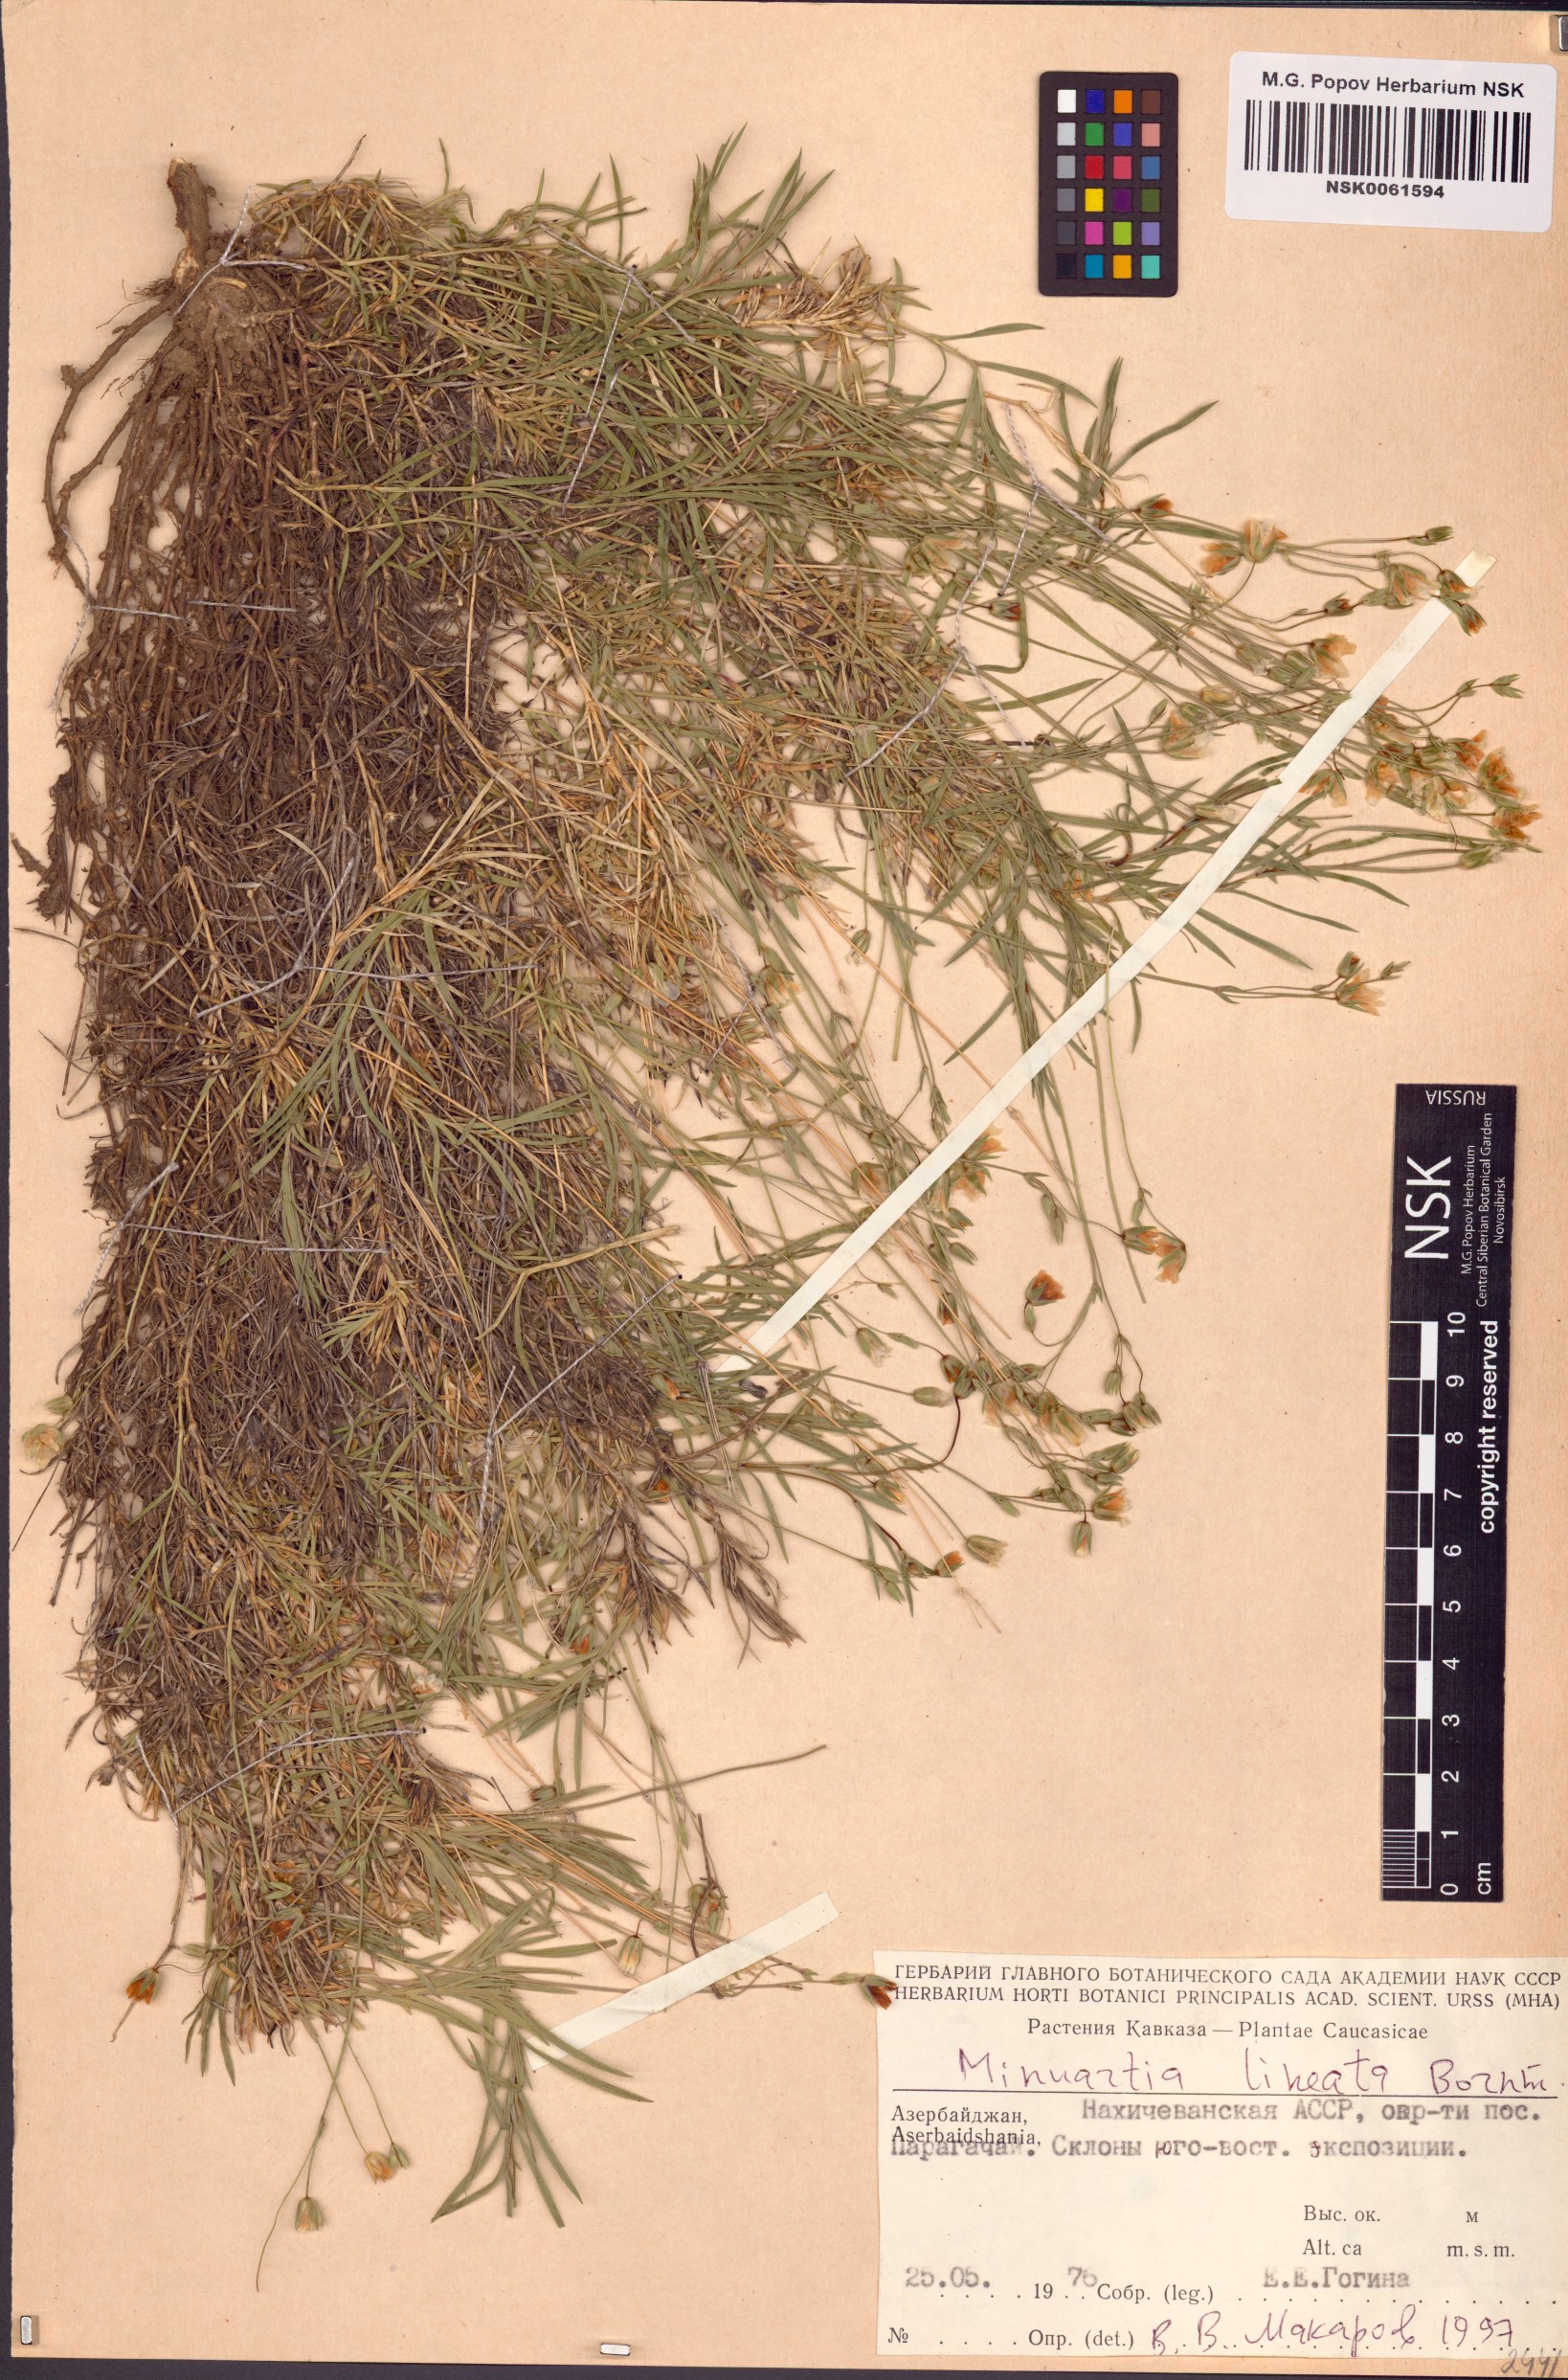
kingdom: Plantae
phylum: Tracheophyta
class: Magnoliopsida
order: Caryophyllales
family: Caryophyllaceae
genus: Sabulina
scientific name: Sabulina lineata
